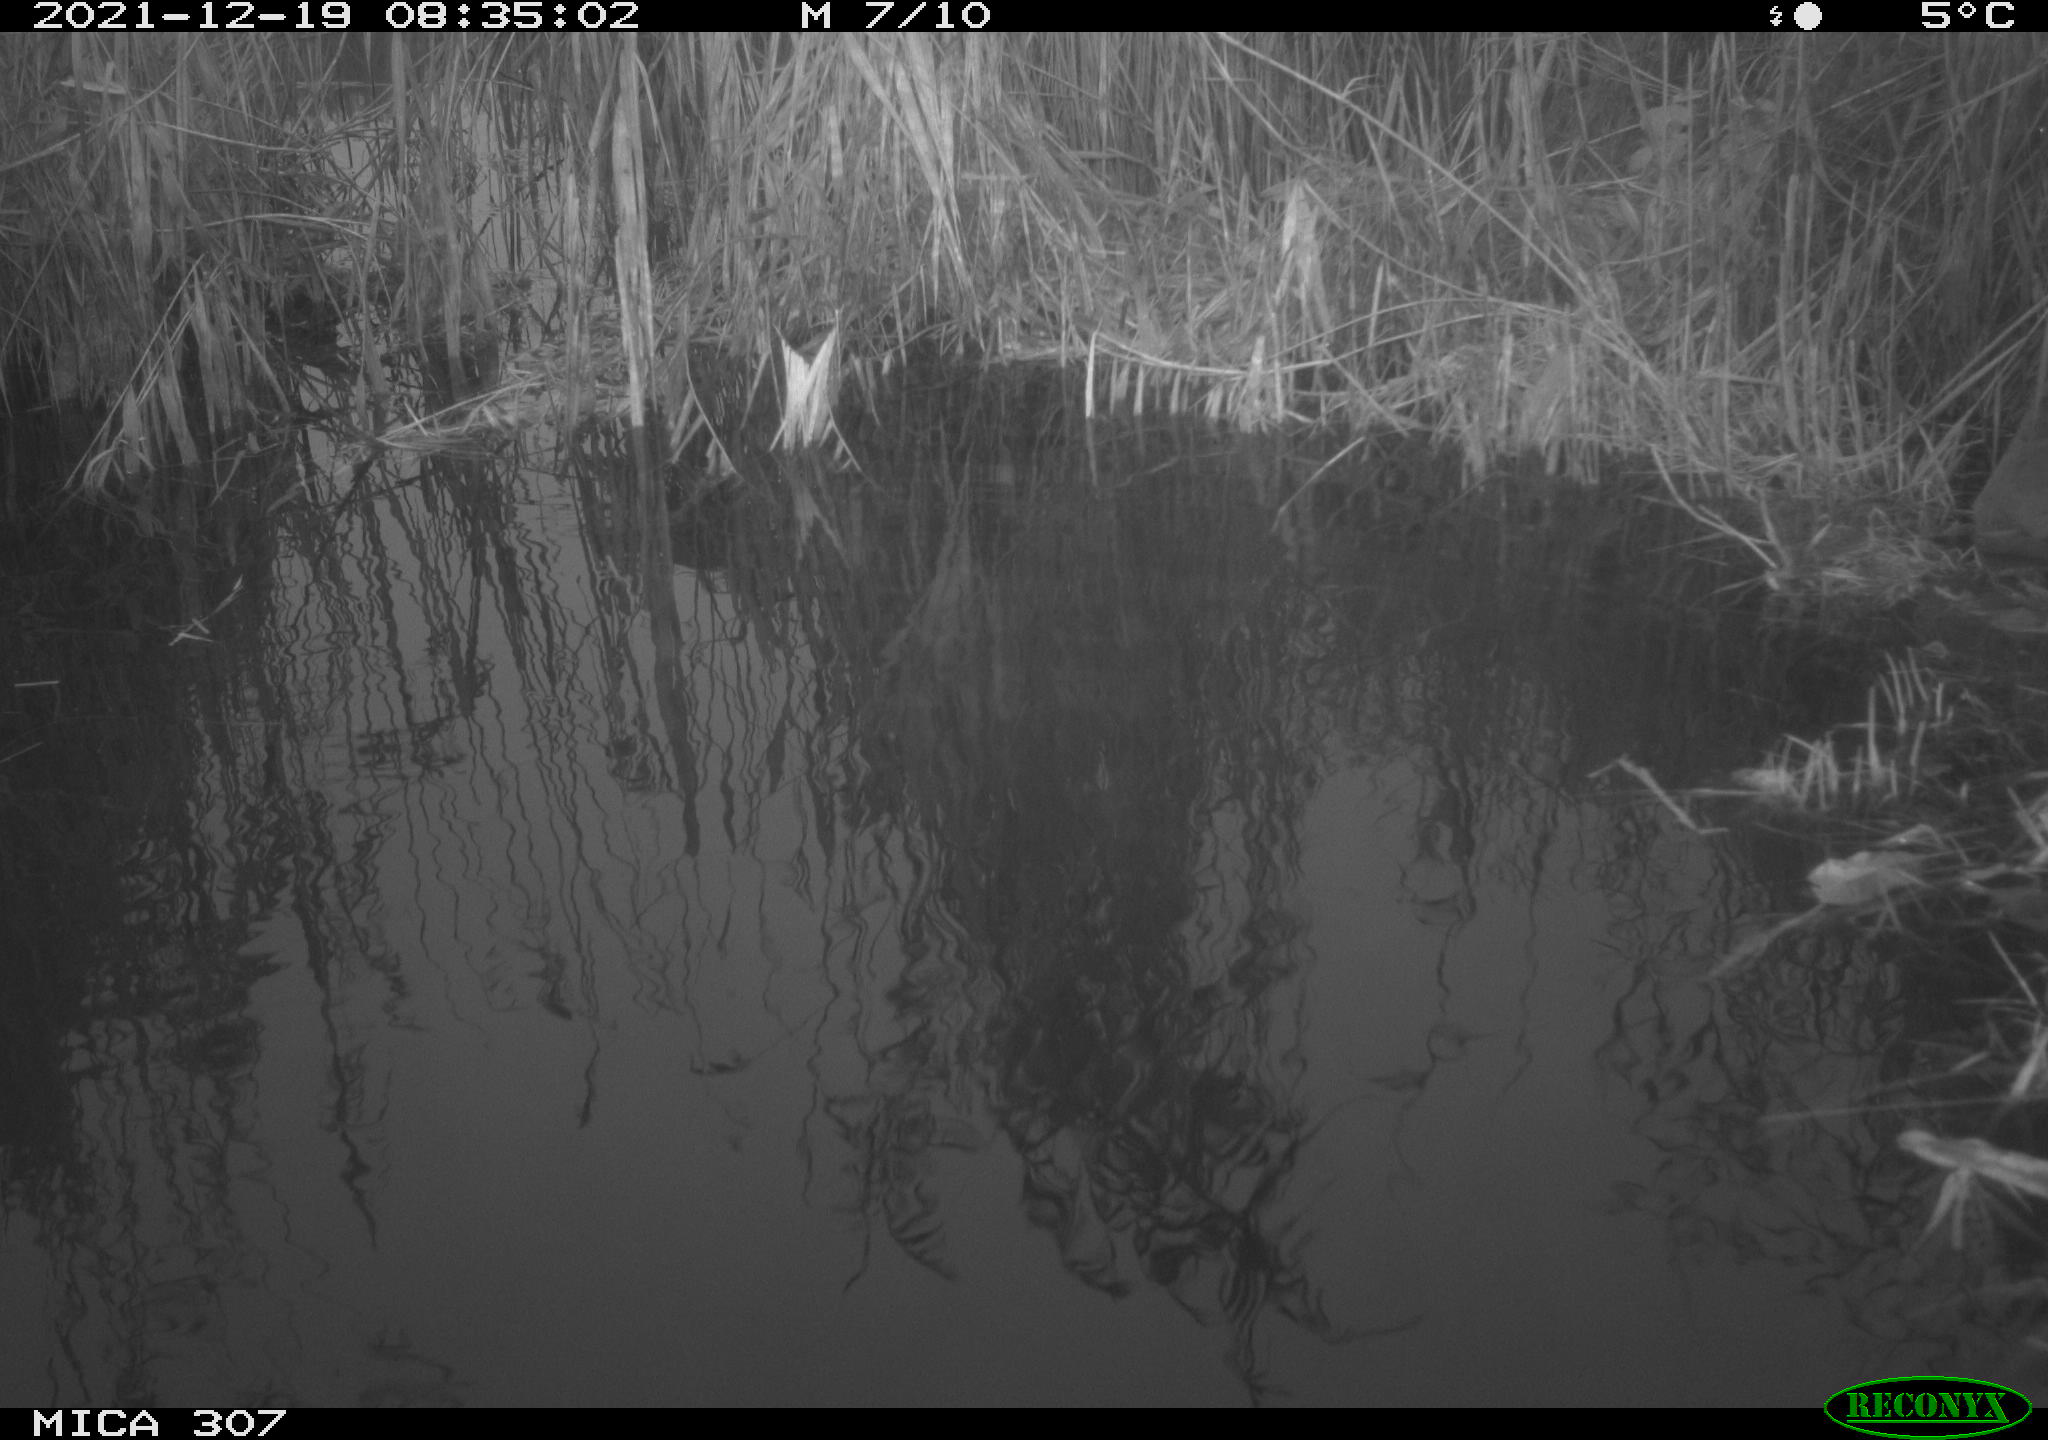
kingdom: Animalia
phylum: Chordata
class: Aves
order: Gruiformes
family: Rallidae
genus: Fulica
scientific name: Fulica atra
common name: Eurasian coot
